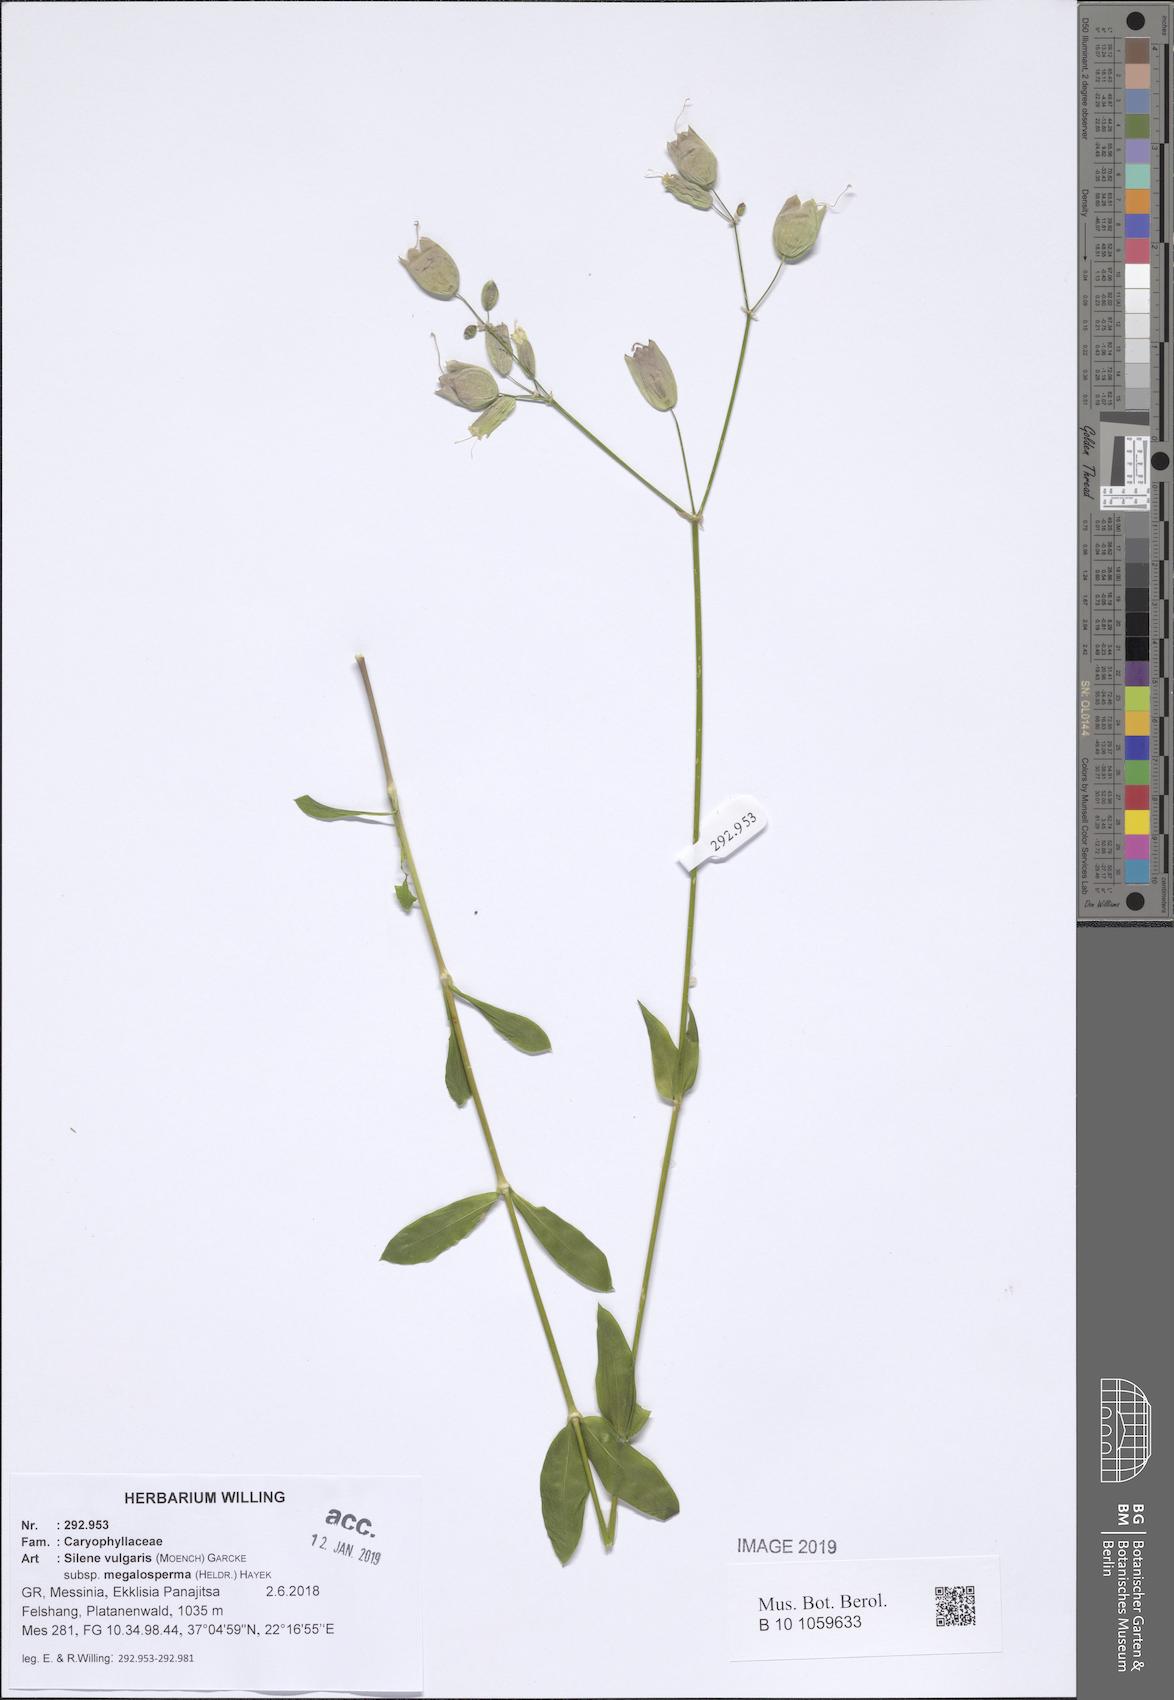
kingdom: Plantae
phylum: Tracheophyta
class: Magnoliopsida
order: Caryophyllales
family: Caryophyllaceae
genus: Silene
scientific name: Silene vulgaris
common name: Bladder campion
